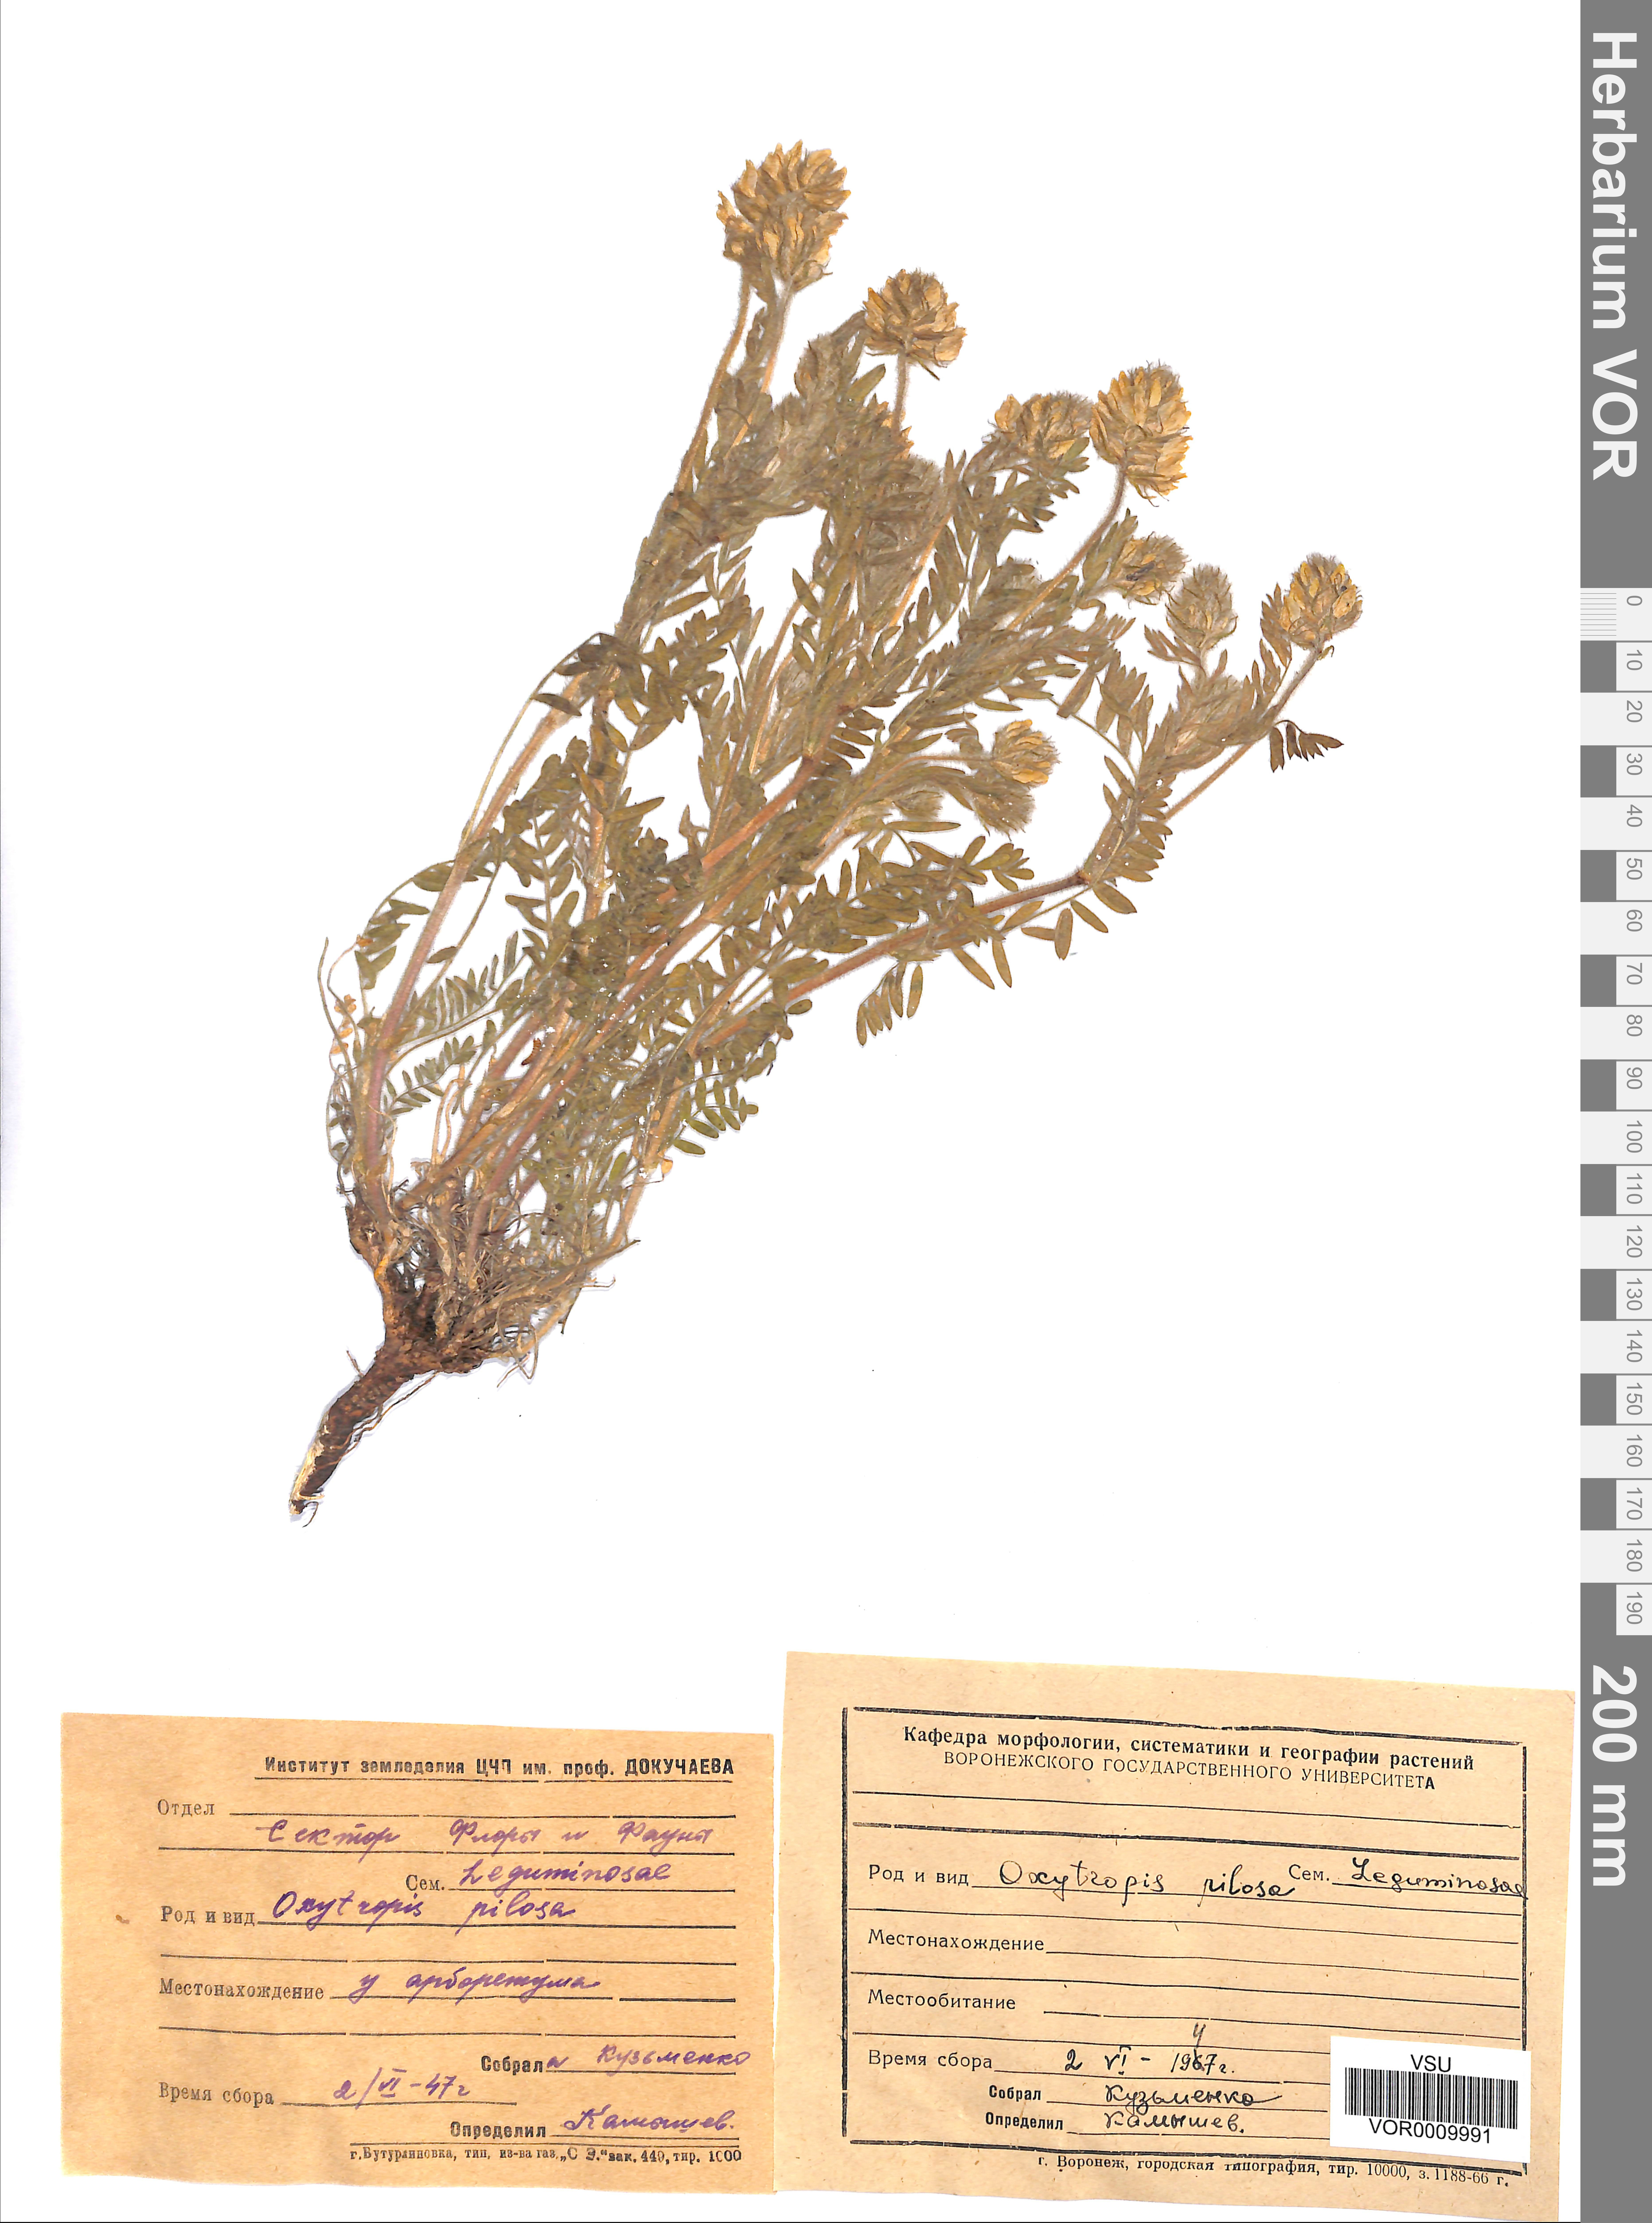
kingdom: Plantae
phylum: Tracheophyta
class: Magnoliopsida
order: Fabales
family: Fabaceae
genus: Oxytropis
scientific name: Oxytropis pilosa
